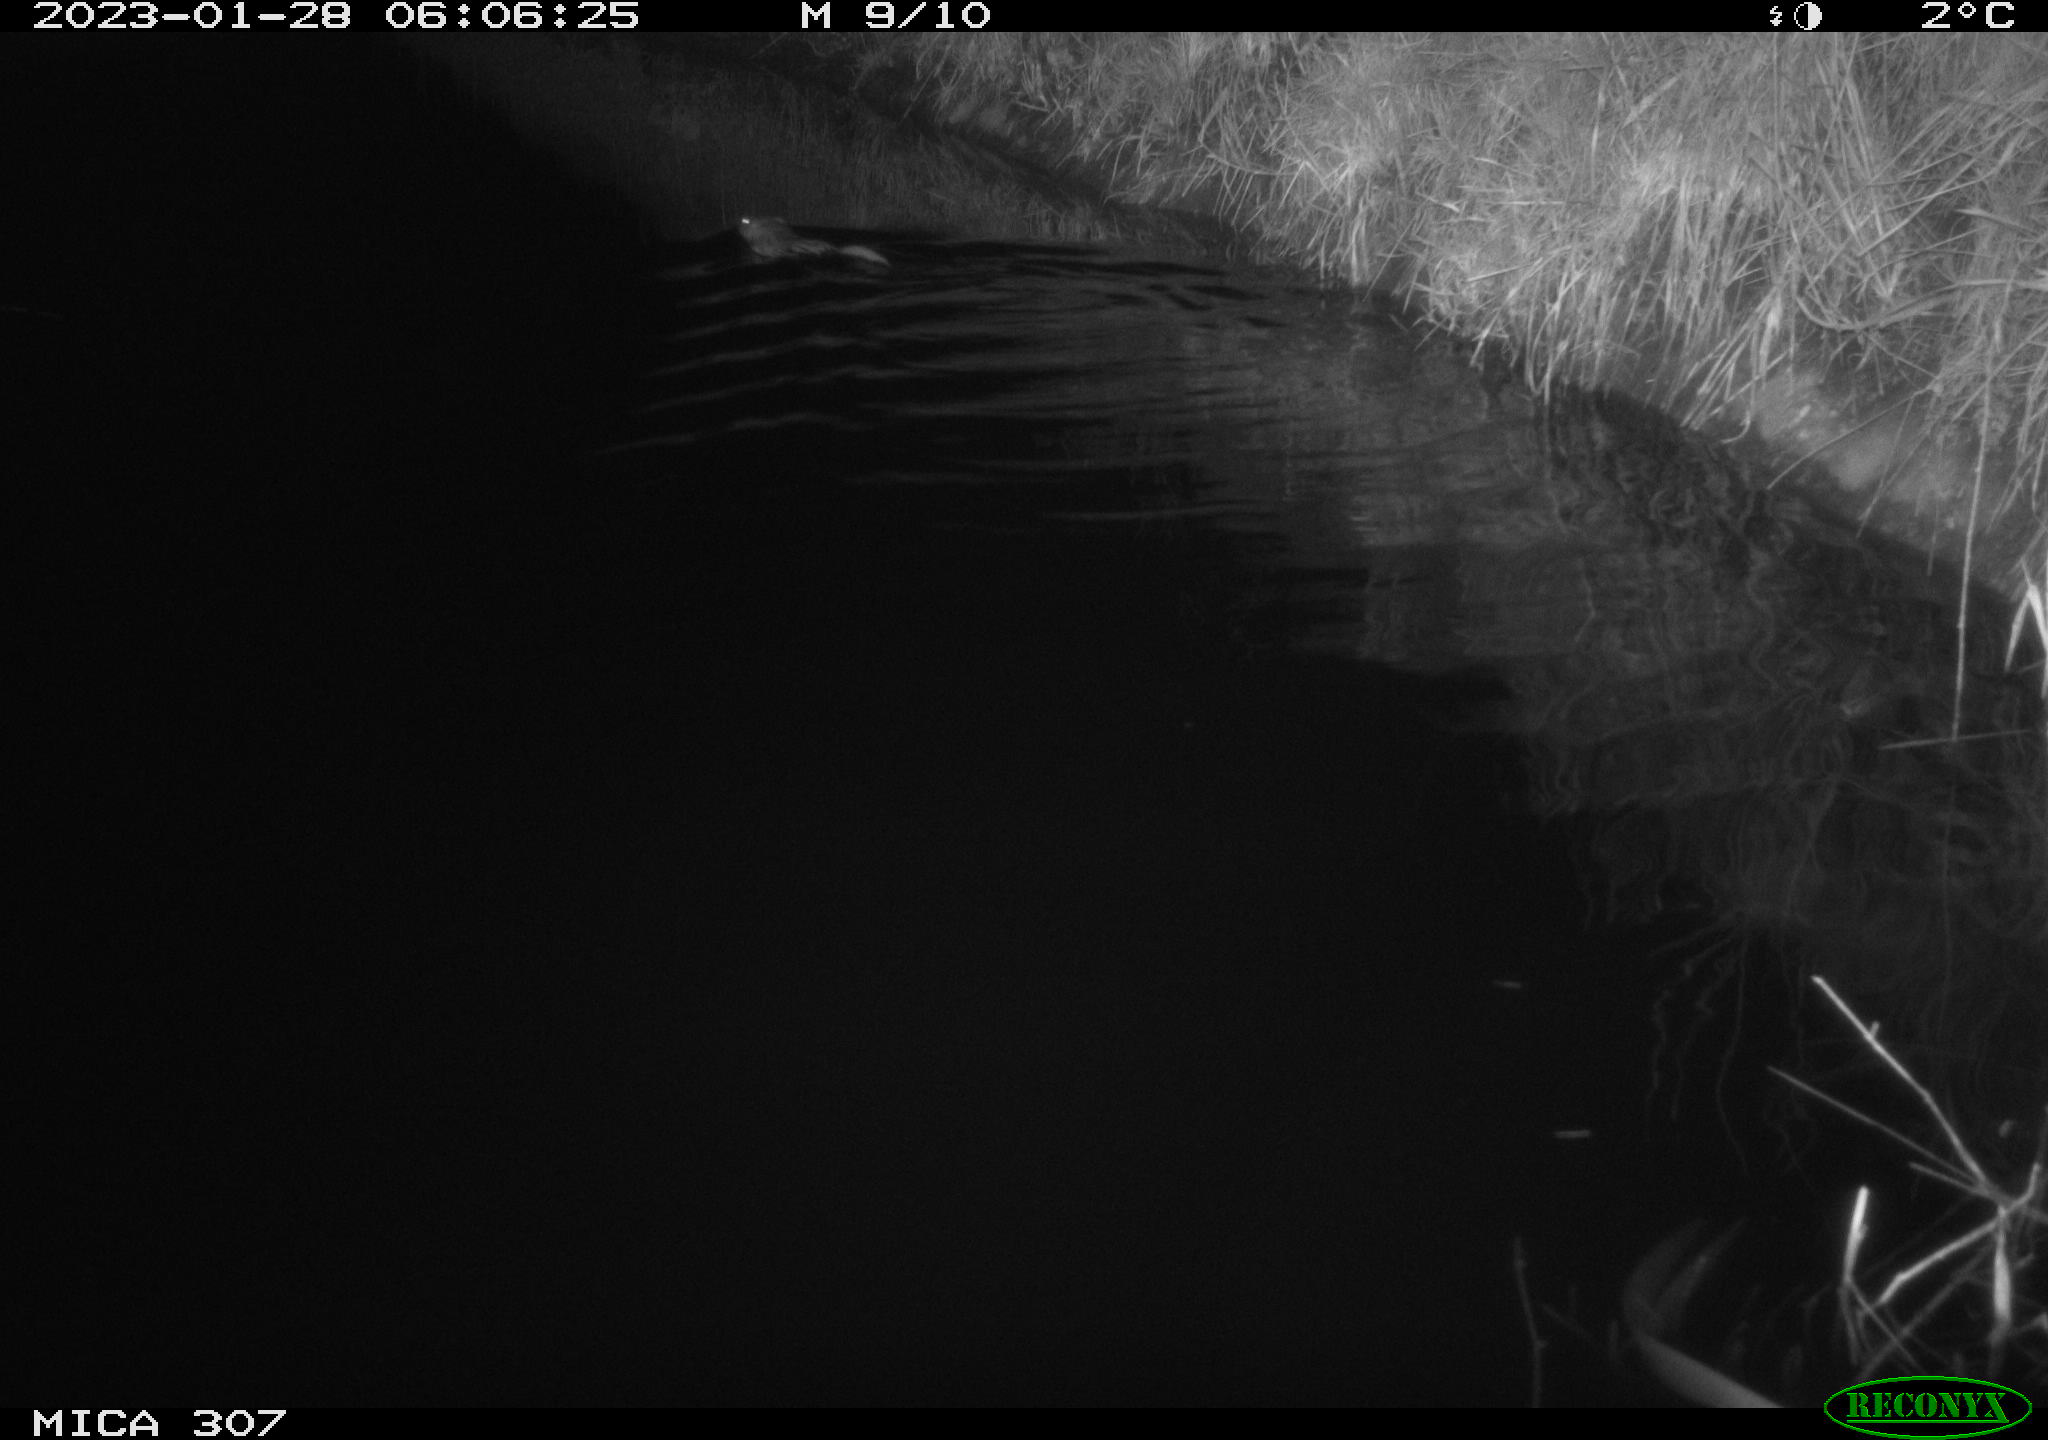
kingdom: Animalia
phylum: Chordata
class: Mammalia
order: Rodentia
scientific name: Rodentia
